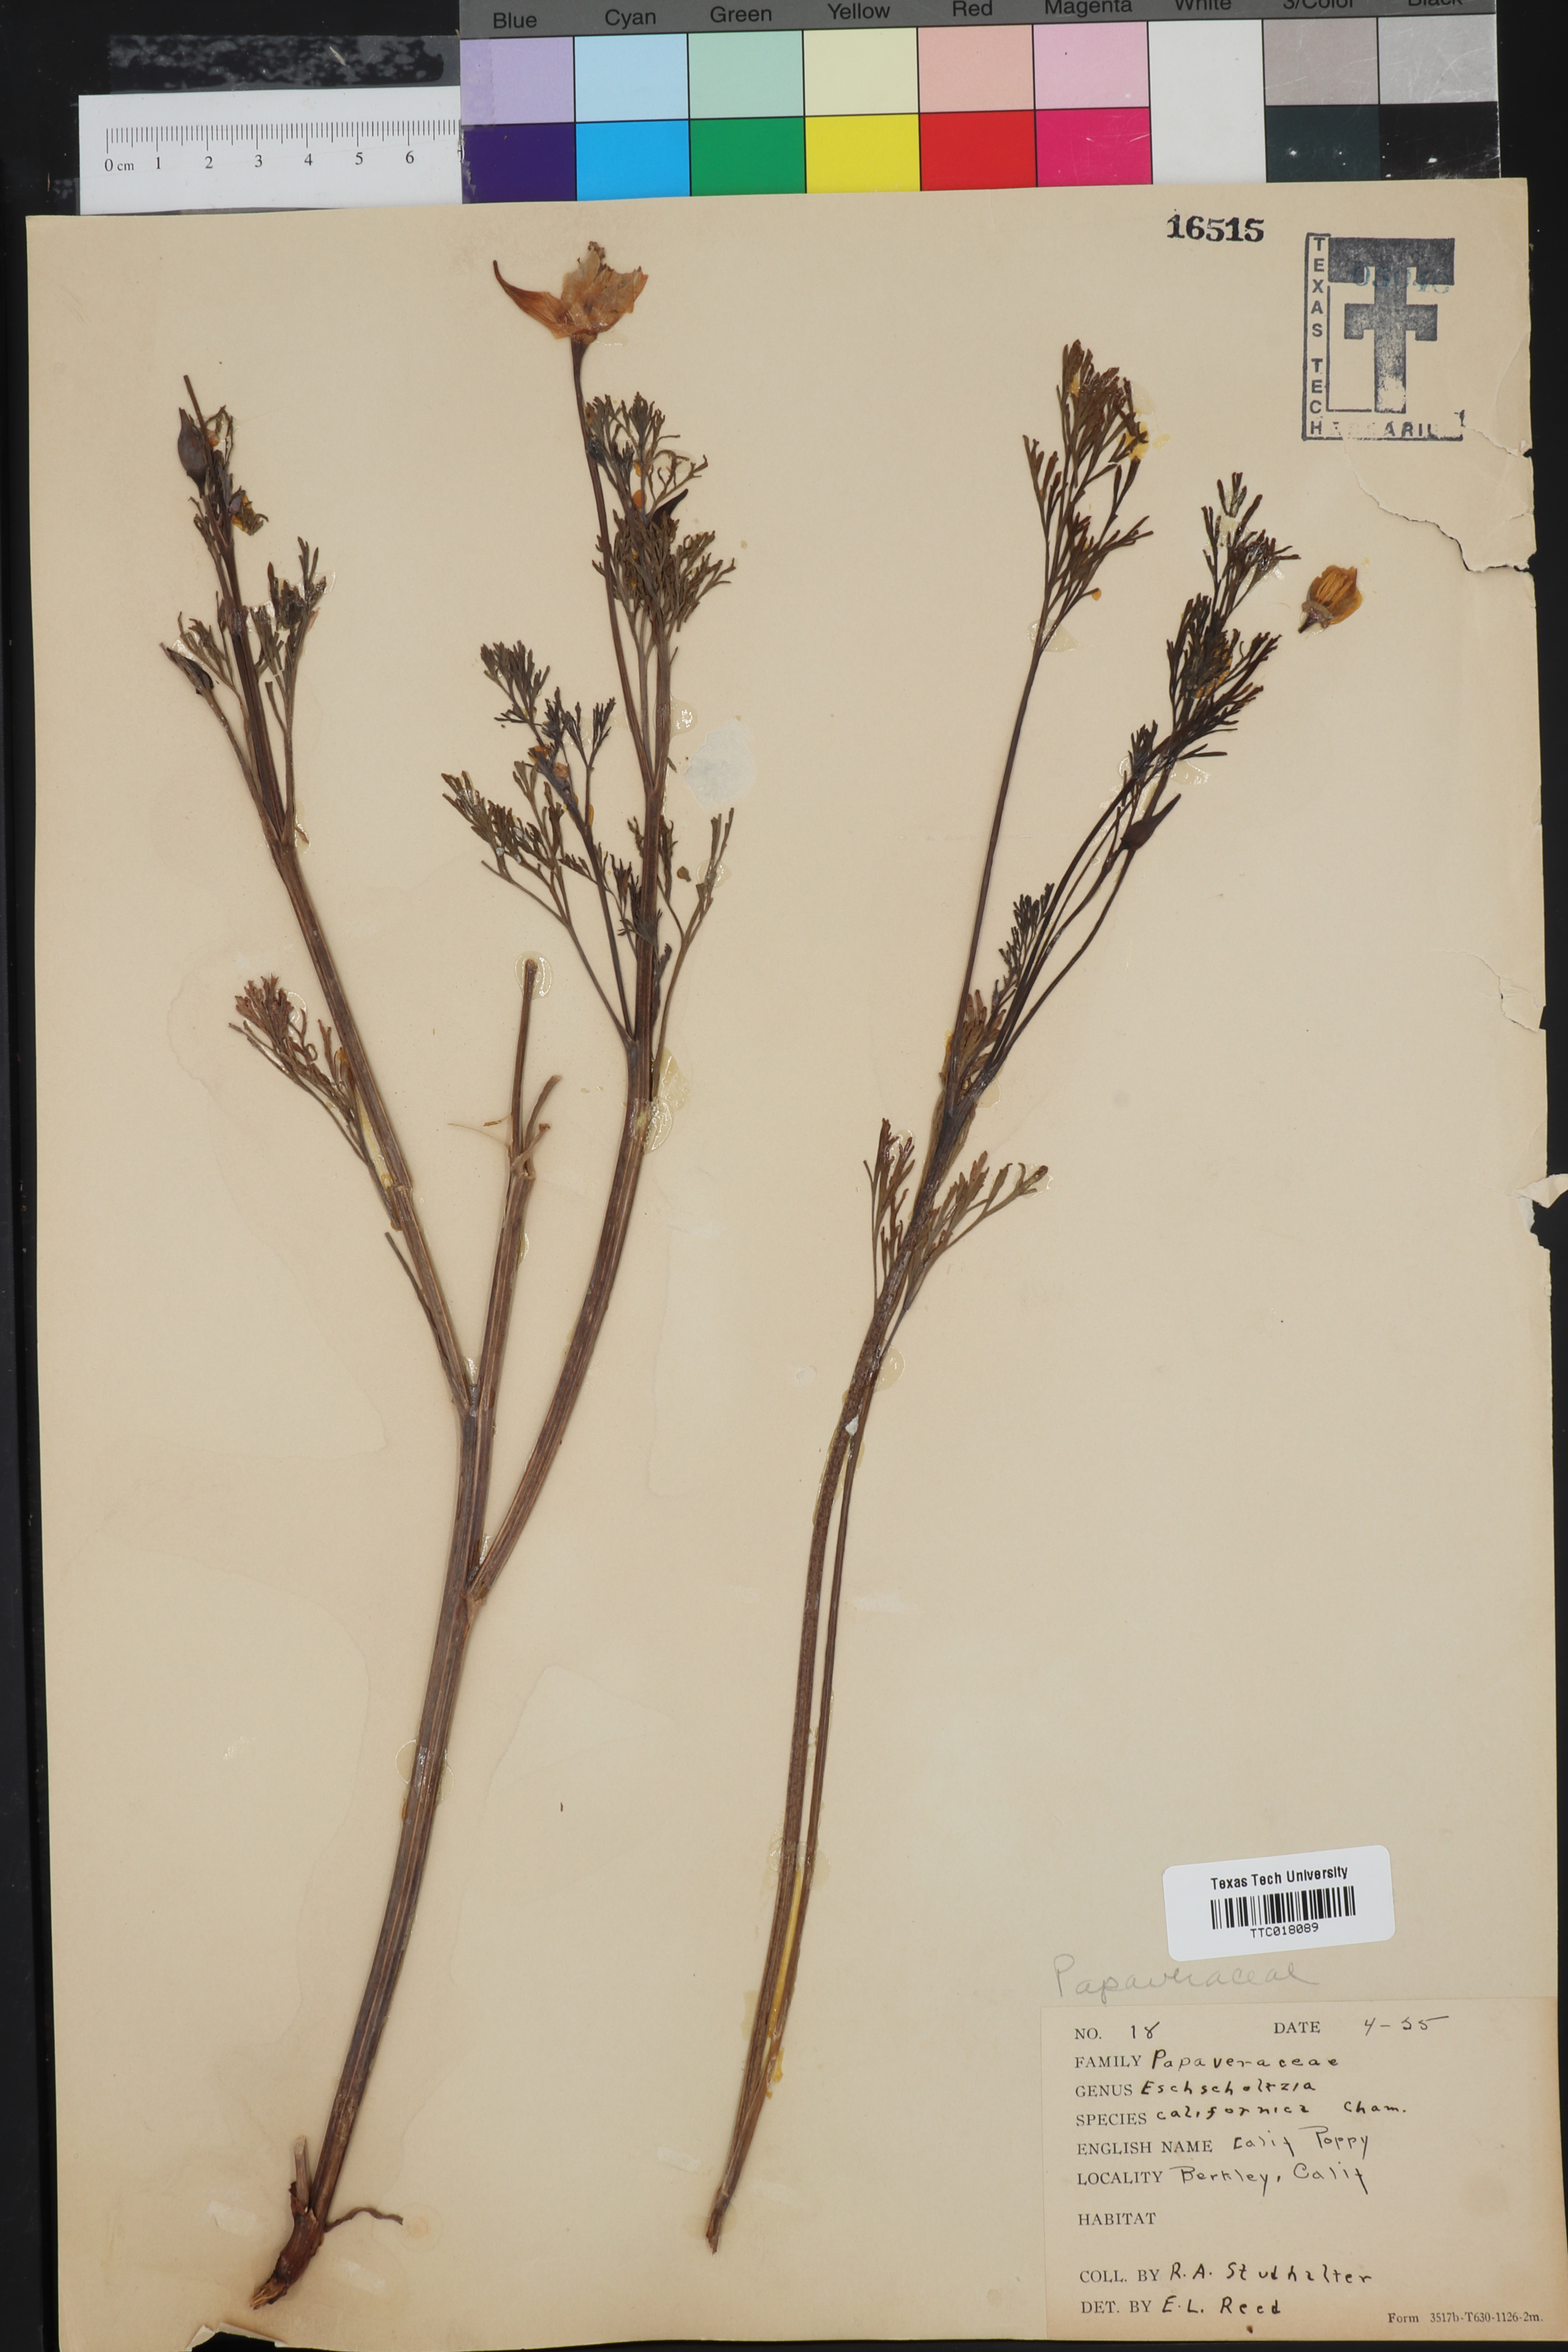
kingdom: Plantae
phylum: Tracheophyta
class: Magnoliopsida
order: Ranunculales
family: Papaveraceae
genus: Eschscholzia
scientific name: Eschscholzia californica
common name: California poppy
